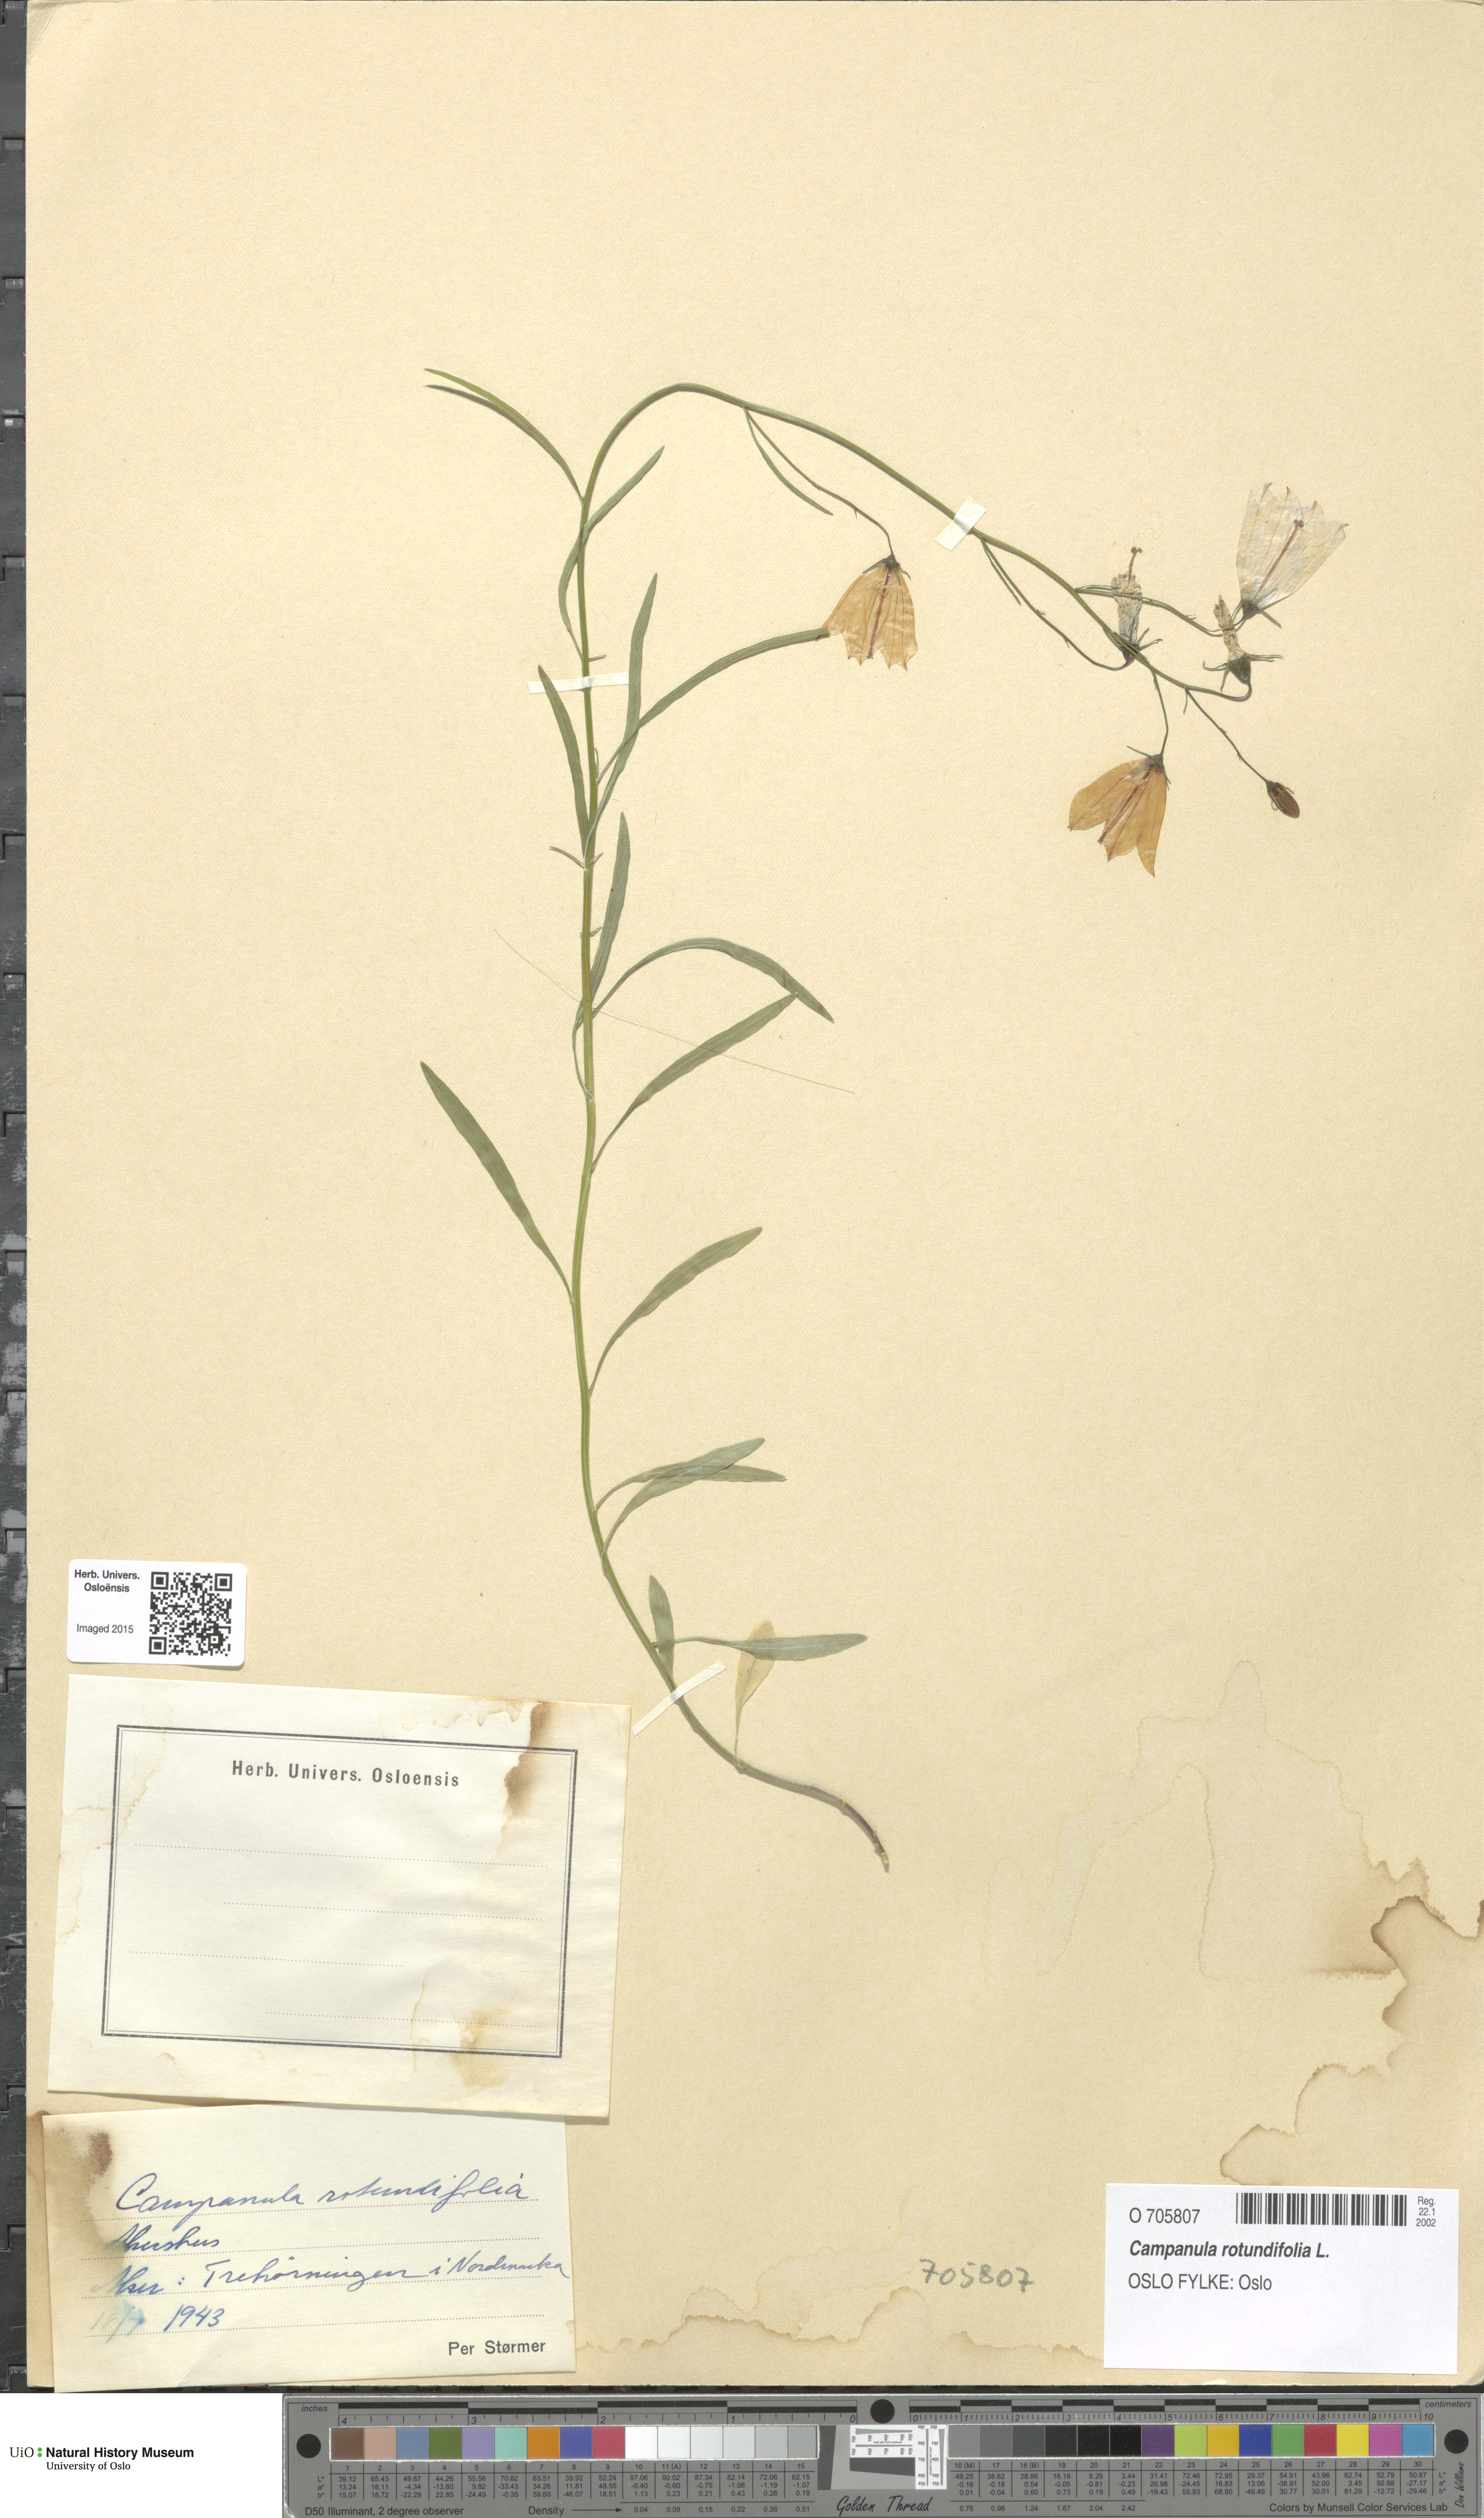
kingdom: Plantae
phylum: Tracheophyta
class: Magnoliopsida
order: Asterales
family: Campanulaceae
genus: Campanula
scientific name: Campanula rotundifolia
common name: Harebell
